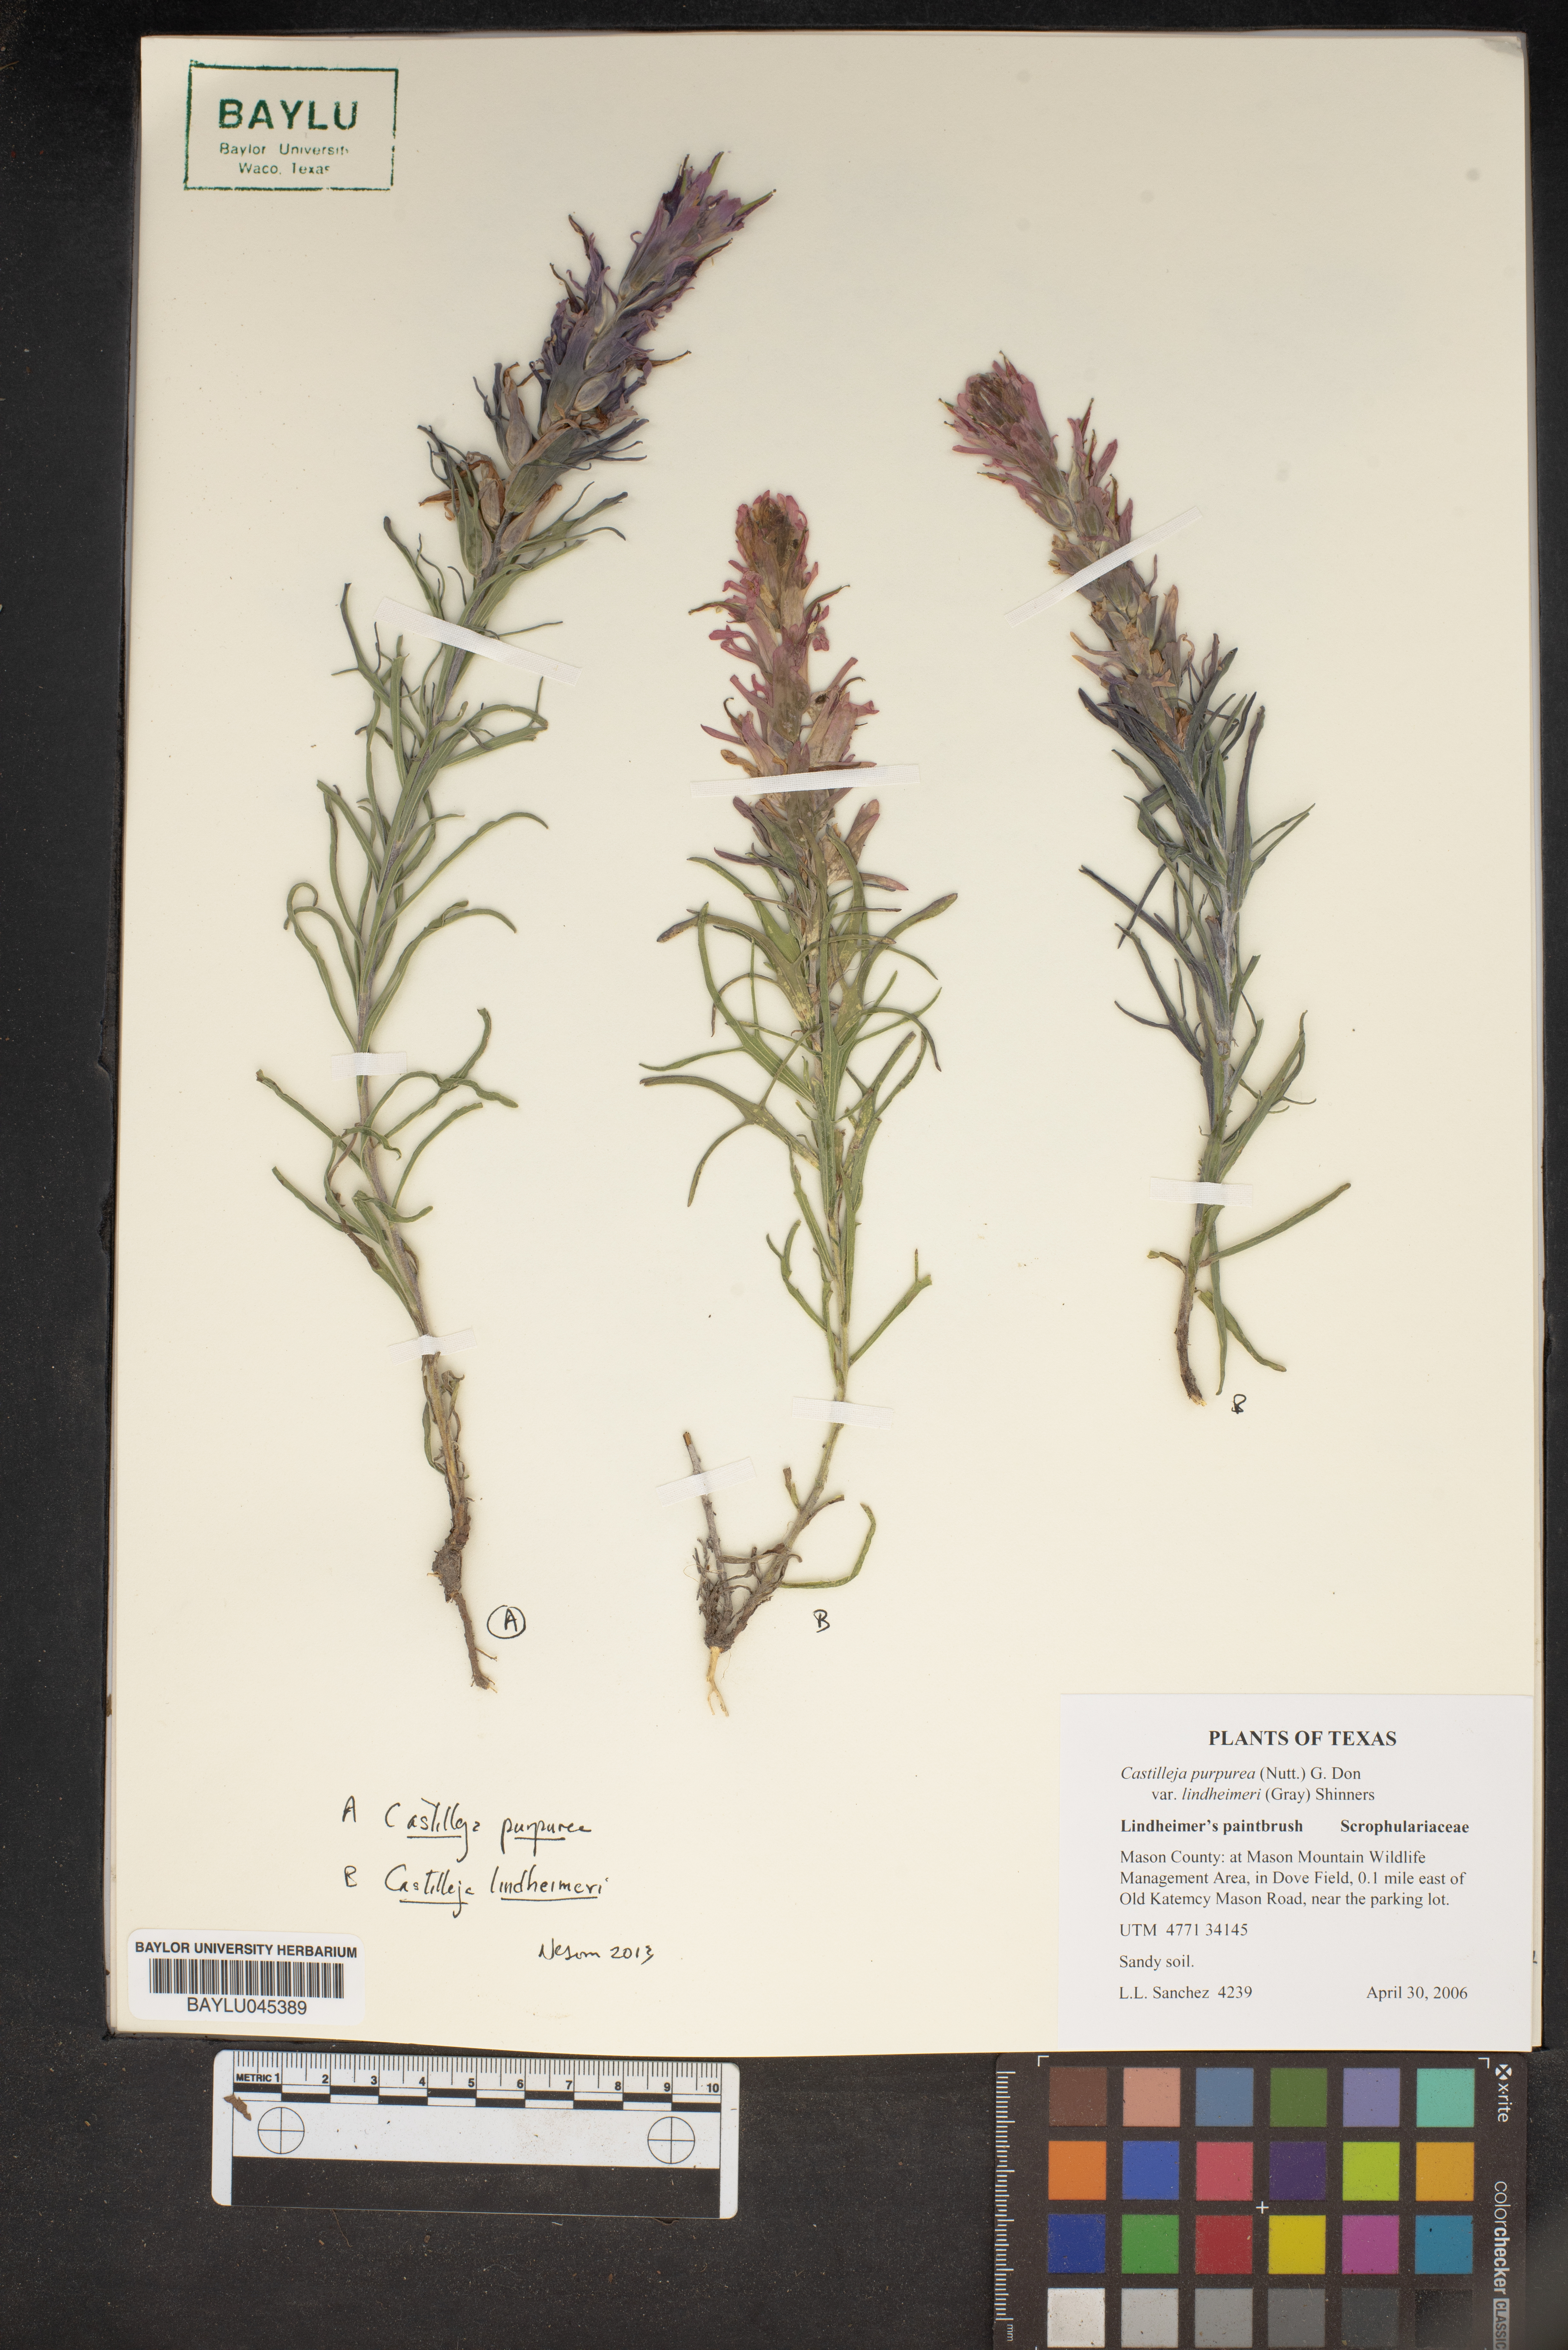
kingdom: Plantae
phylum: Tracheophyta
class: Magnoliopsida
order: Lamiales
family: Orobanchaceae
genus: Castilleja
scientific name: Castilleja lindheimeri
